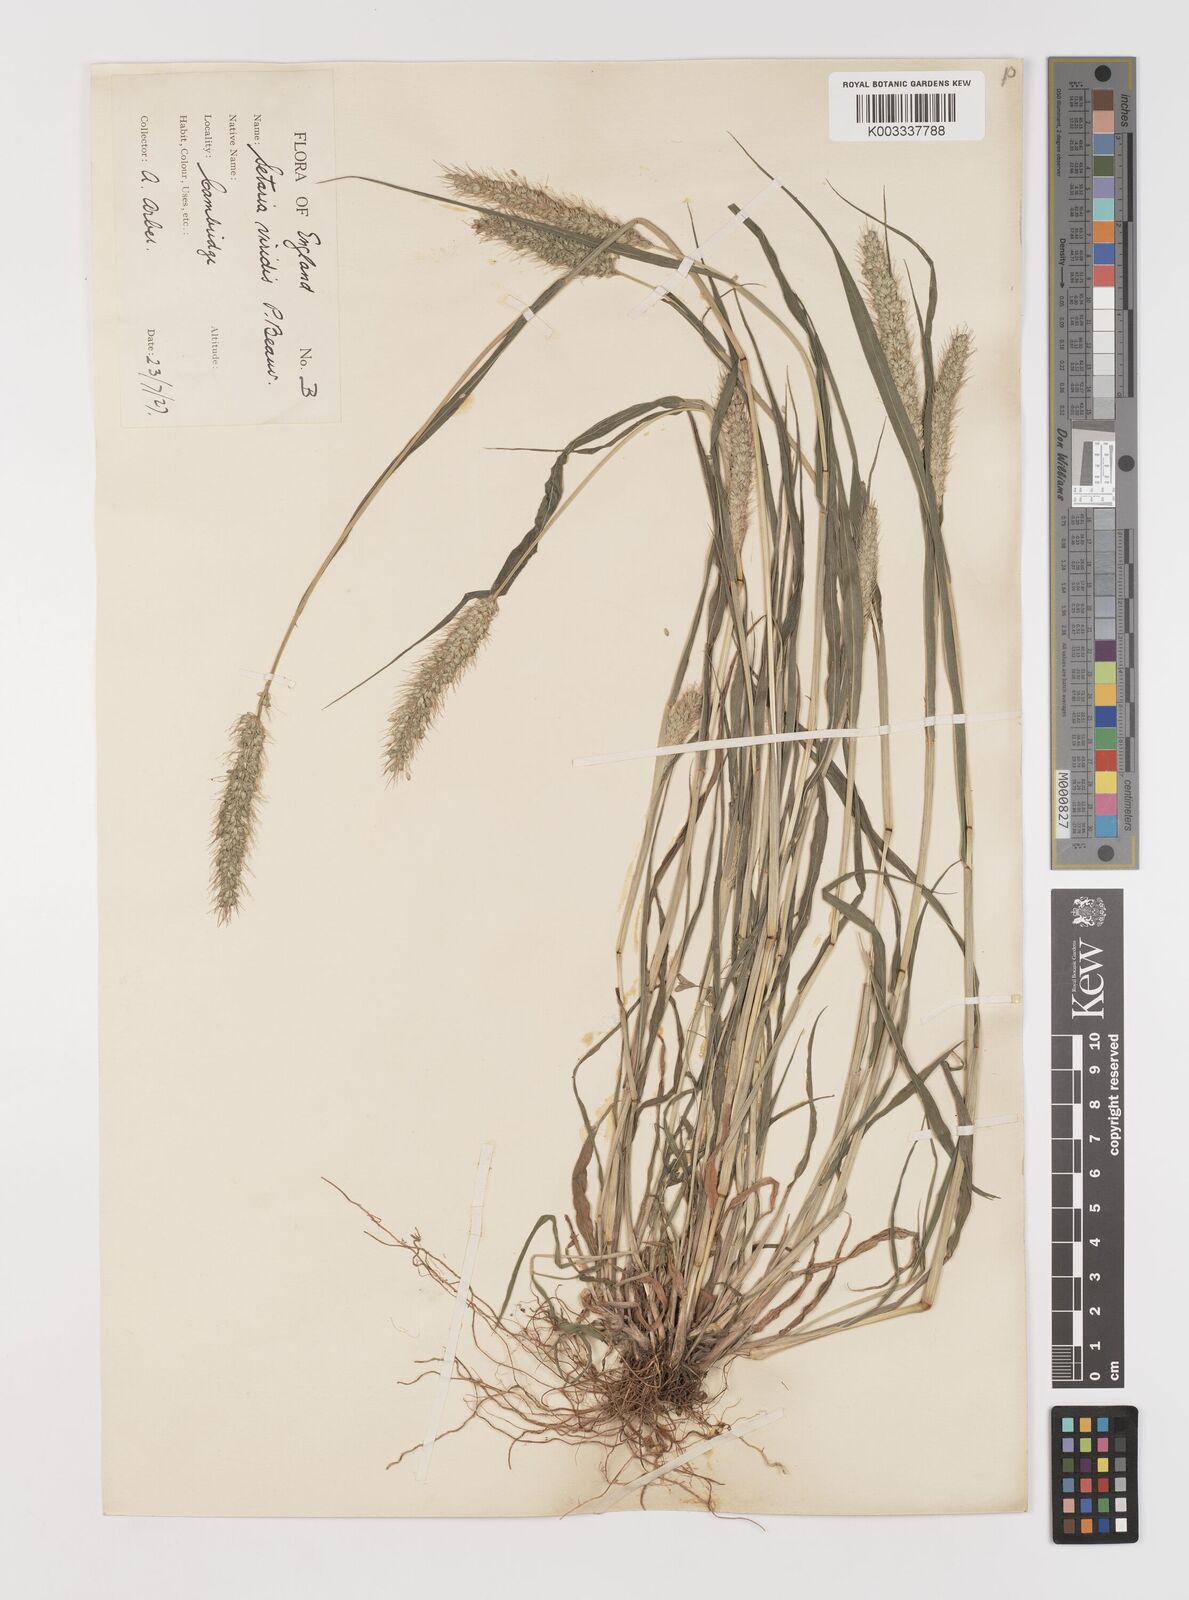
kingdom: Plantae
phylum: Tracheophyta
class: Liliopsida
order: Poales
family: Poaceae
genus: Setaria
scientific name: Setaria viridis
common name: Green bristlegrass
